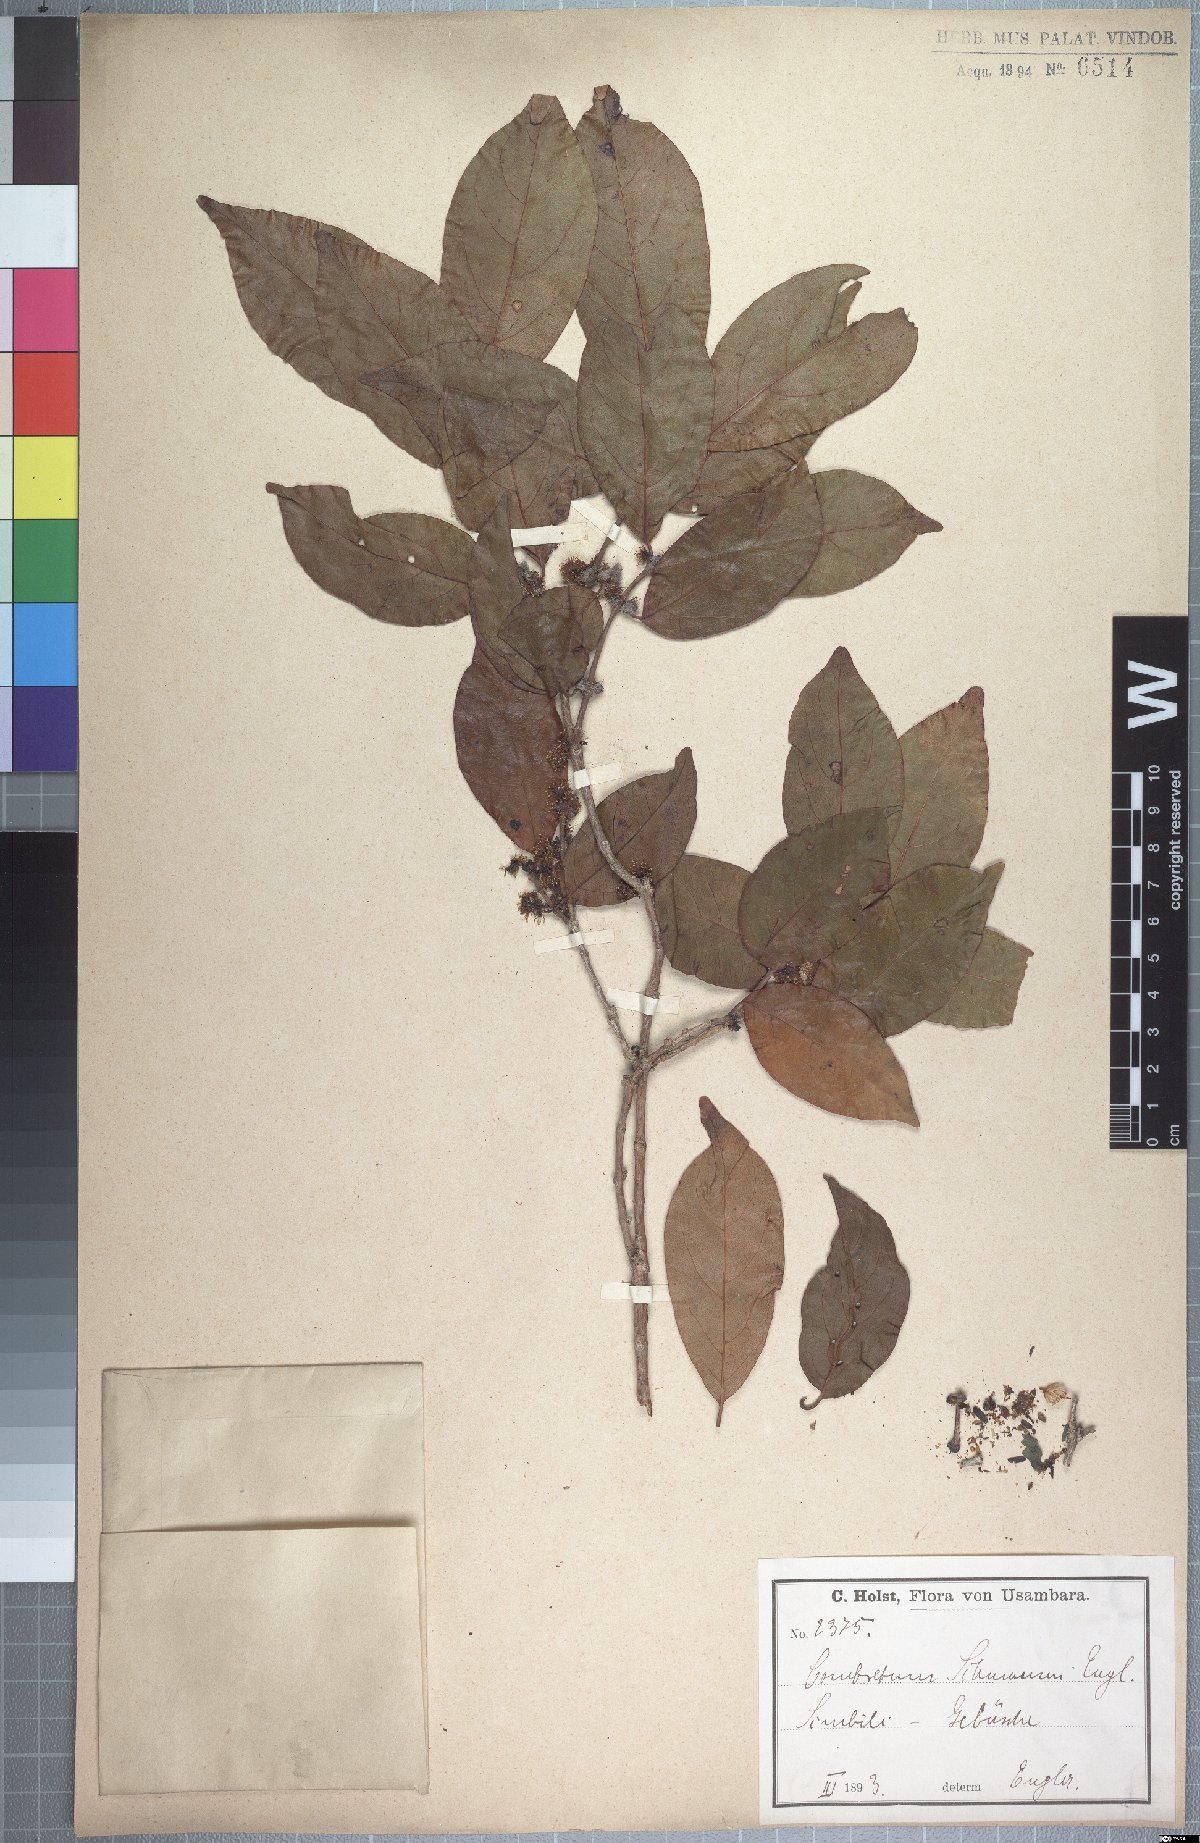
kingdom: Plantae
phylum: Tracheophyta
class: Magnoliopsida
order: Myrtales
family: Combretaceae
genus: Combretum
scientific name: Combretum schumannii
